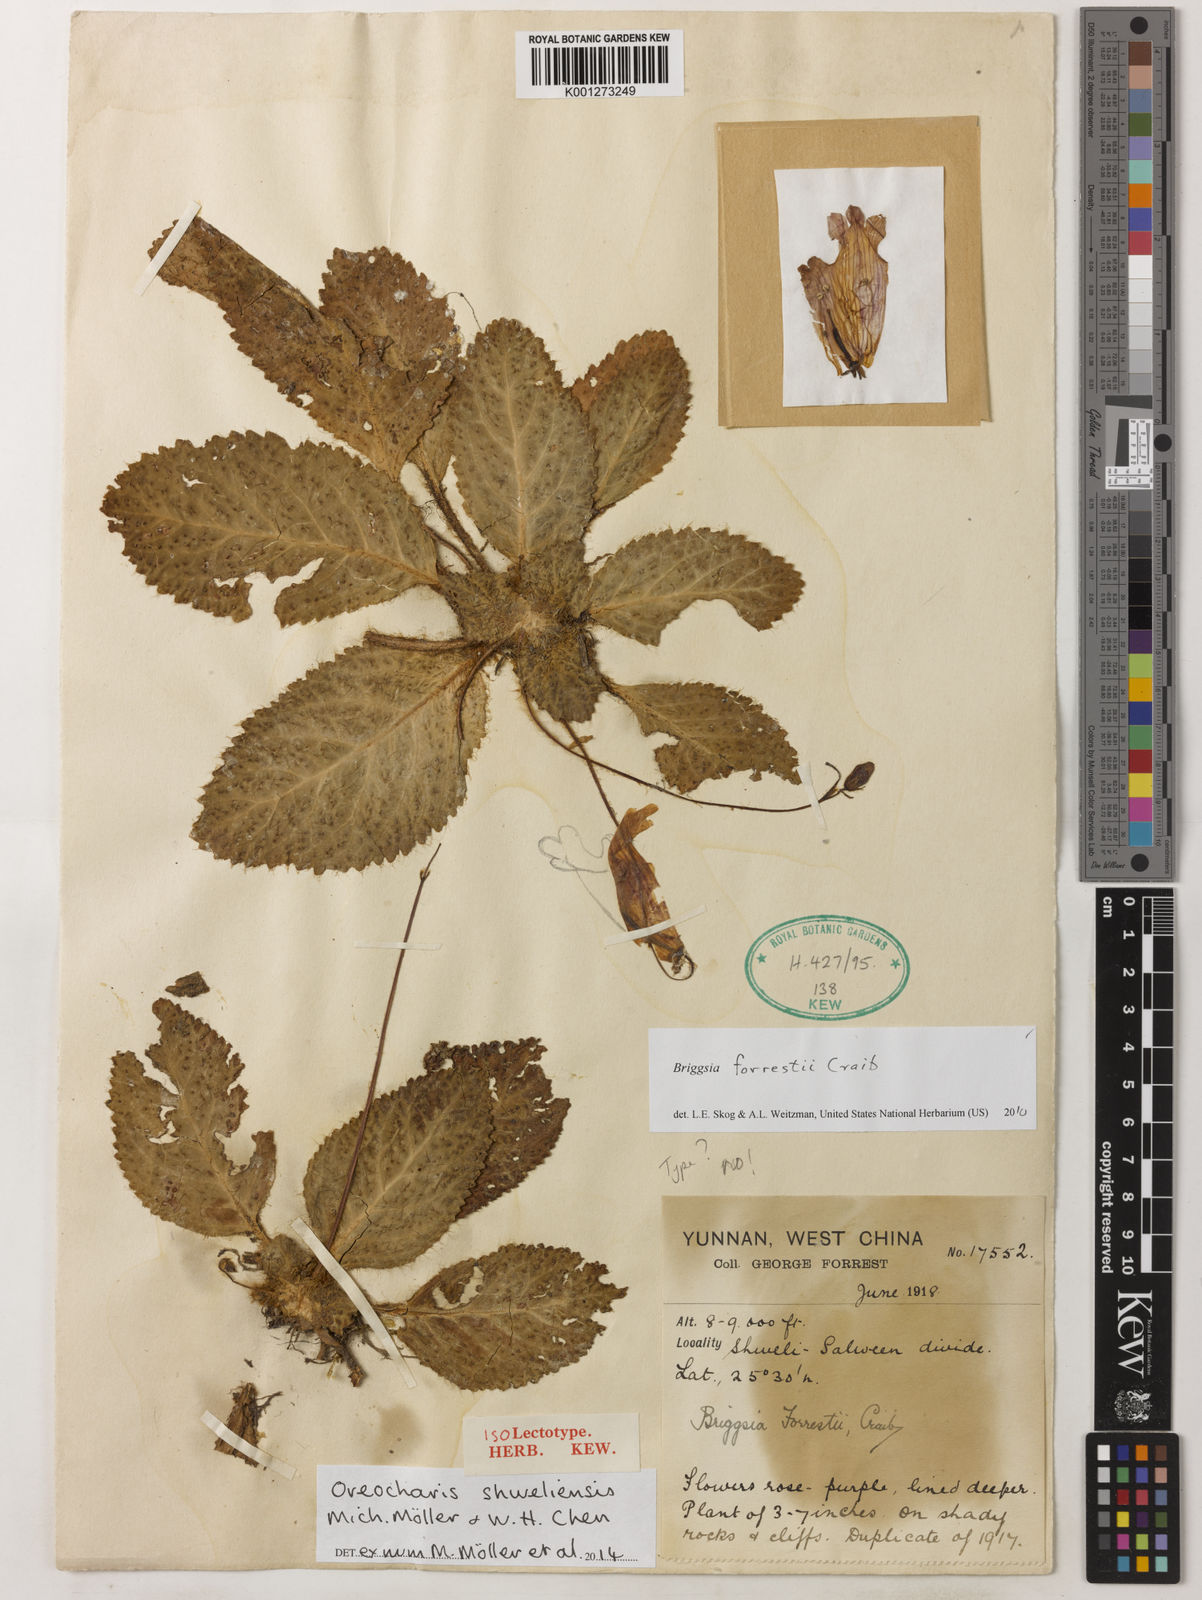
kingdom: Plantae
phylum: Tracheophyta
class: Magnoliopsida
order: Lamiales
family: Gesneriaceae
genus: Oreocharis
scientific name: Oreocharis
